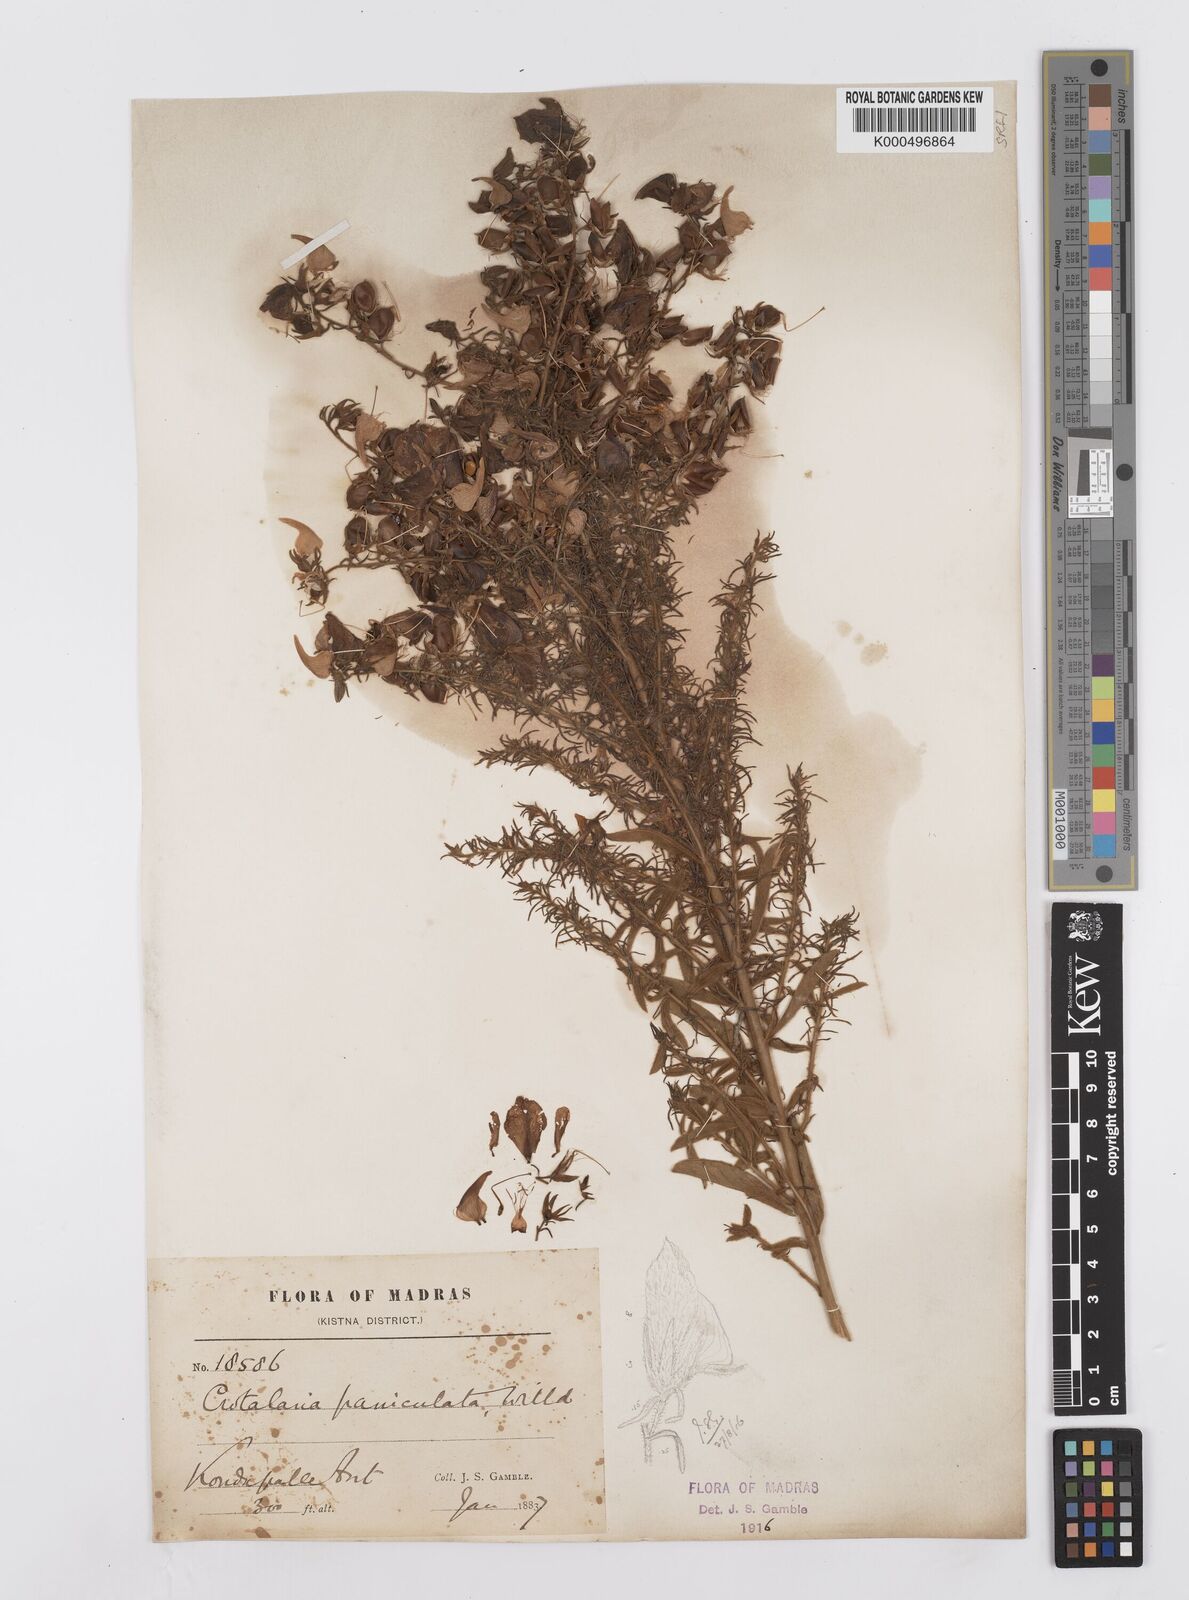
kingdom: Plantae
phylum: Tracheophyta
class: Magnoliopsida
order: Fabales
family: Fabaceae
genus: Crotalaria
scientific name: Crotalaria paniculata
